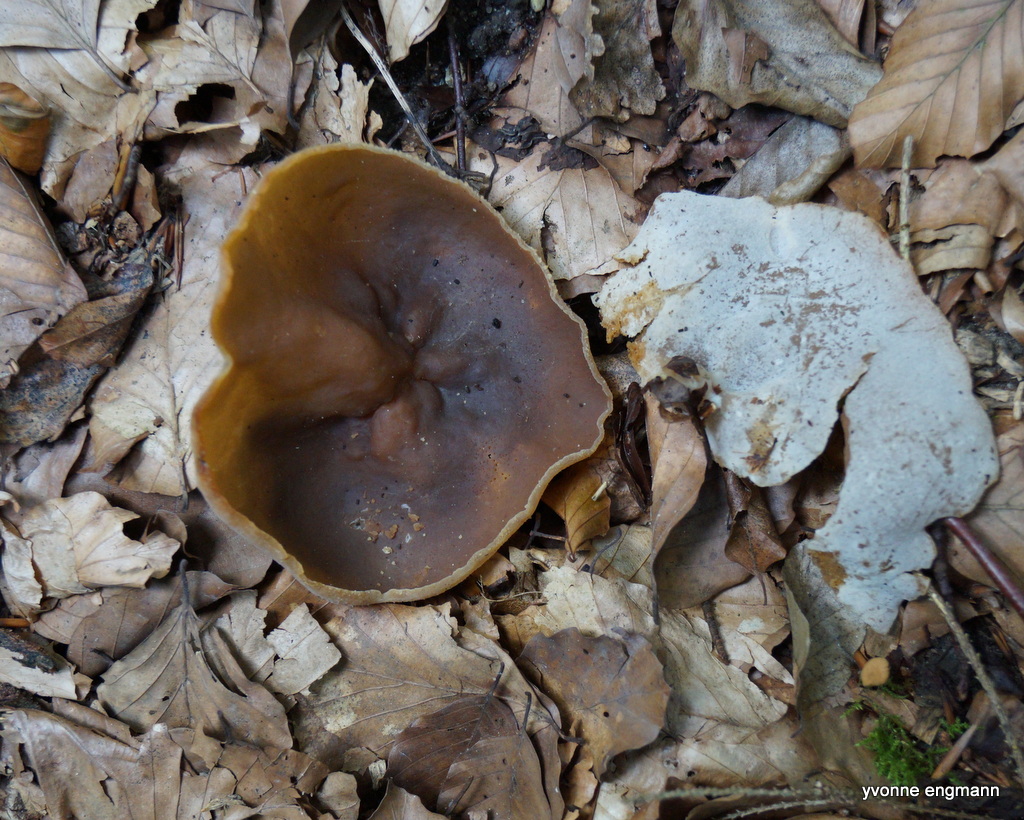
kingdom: Fungi
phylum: Ascomycota
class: Pezizomycetes
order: Pezizales
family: Pezizaceae
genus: Peziza
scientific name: Peziza
